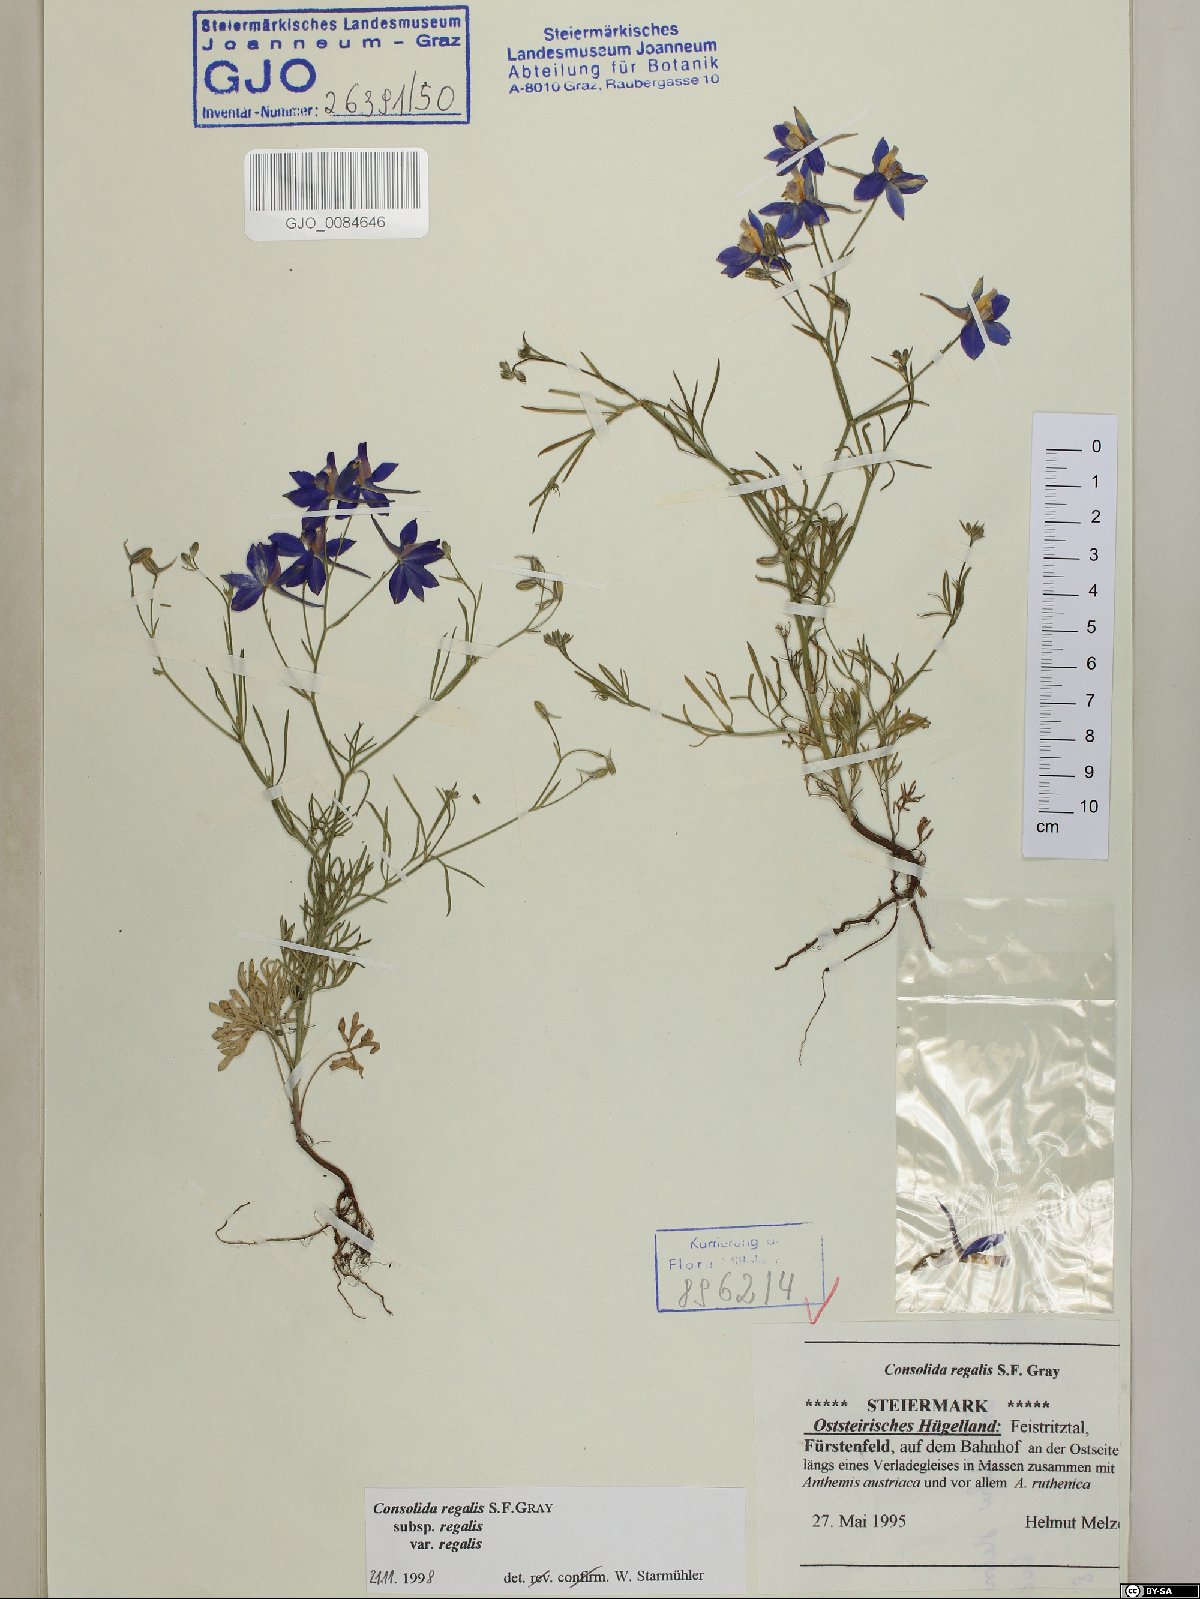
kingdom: Plantae
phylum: Tracheophyta
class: Magnoliopsida
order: Ranunculales
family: Ranunculaceae
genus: Delphinium
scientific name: Delphinium consolida
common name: Branching larkspur
